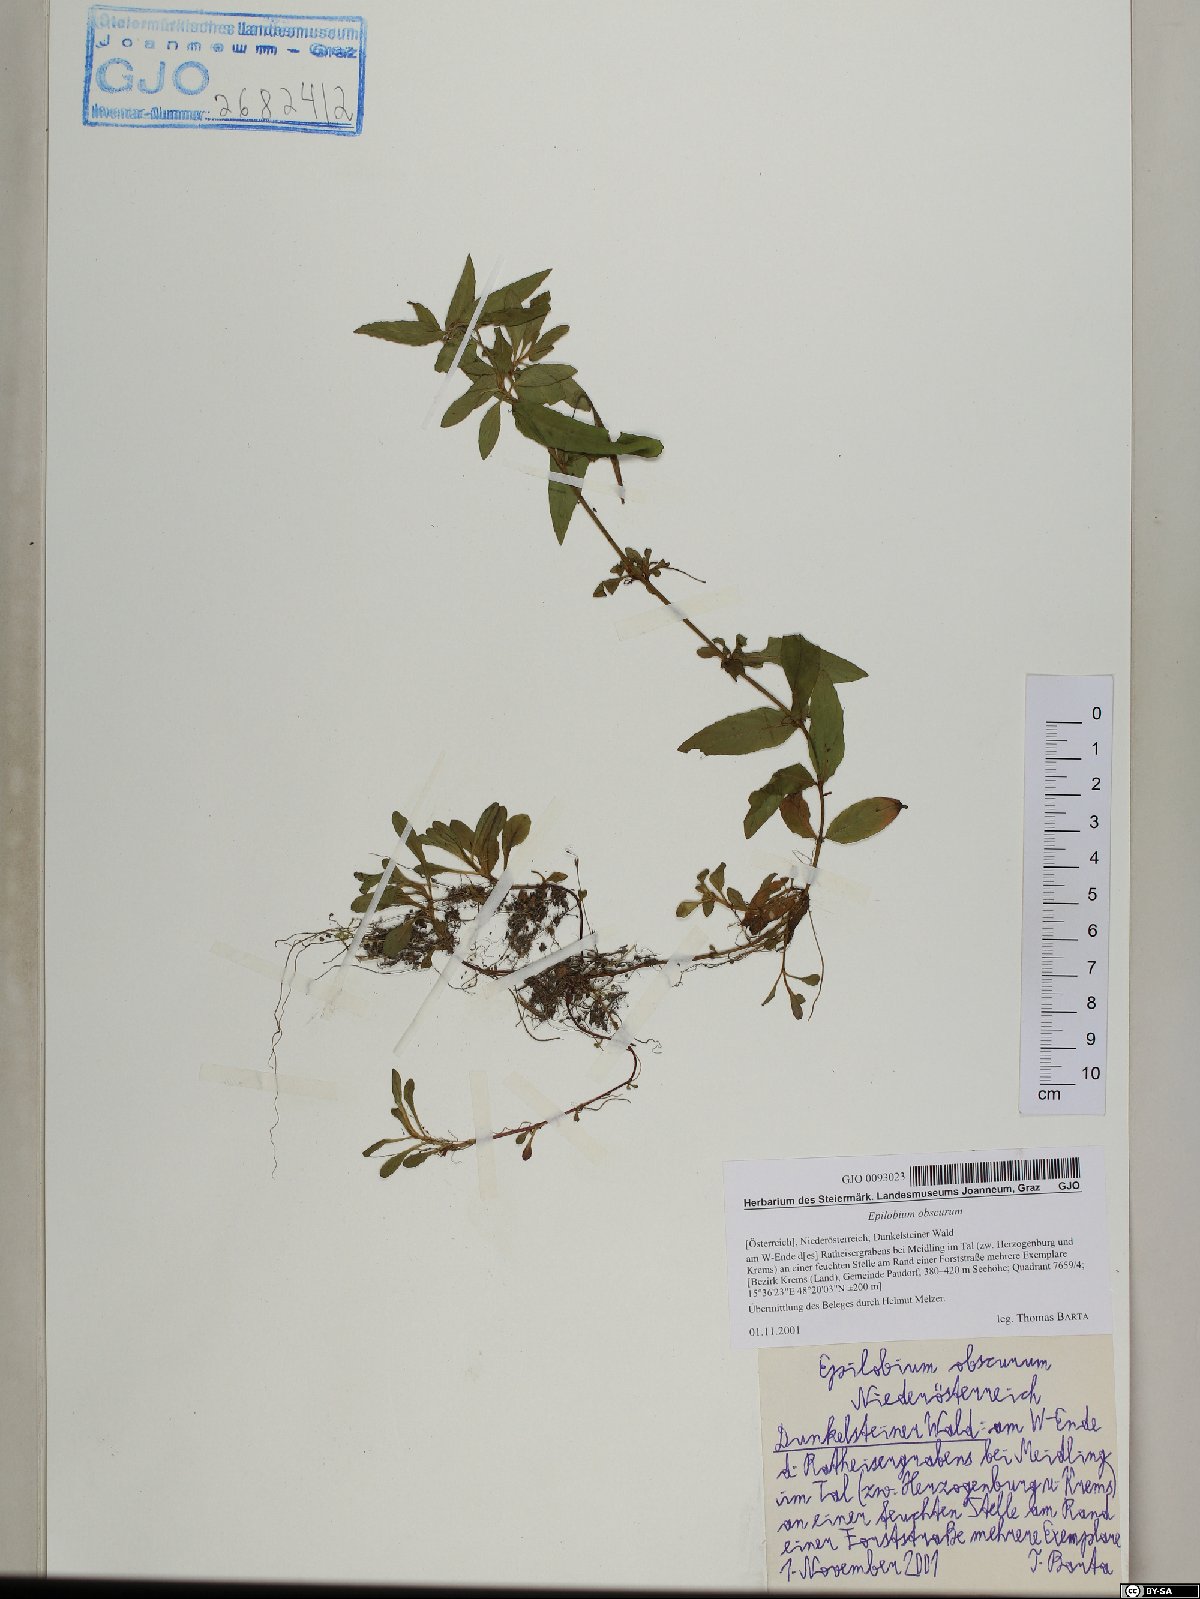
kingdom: Plantae
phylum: Tracheophyta
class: Magnoliopsida
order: Myrtales
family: Onagraceae
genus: Epilobium
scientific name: Epilobium obscurum
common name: Short-fruited willowherb
